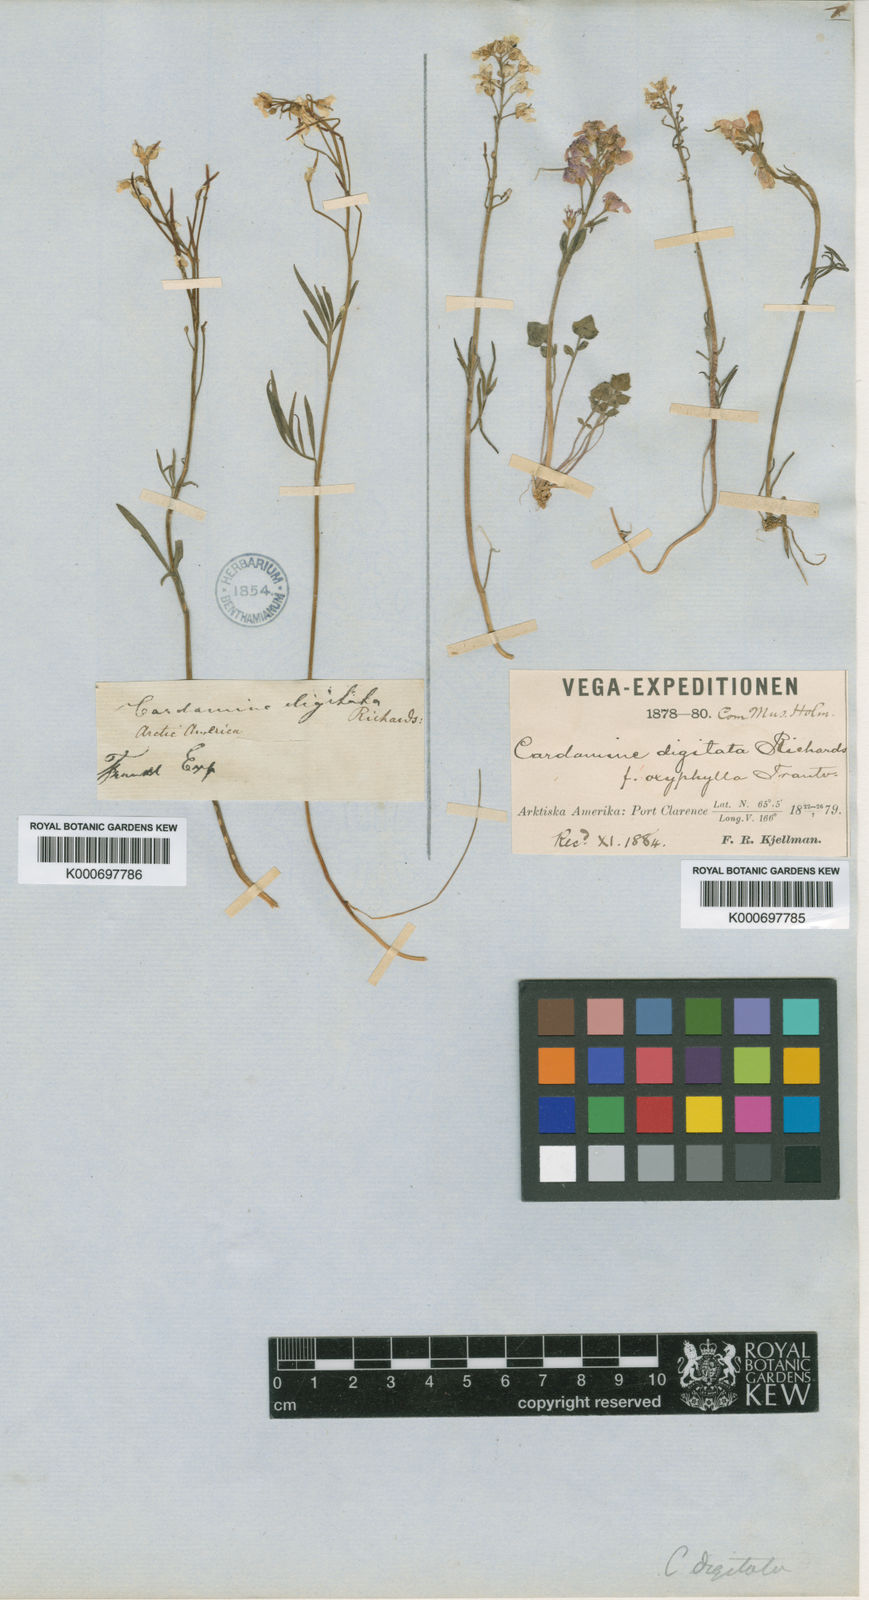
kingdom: Plantae
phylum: Tracheophyta
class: Magnoliopsida
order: Brassicales
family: Brassicaceae
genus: Cardamine
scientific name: Cardamine digitata
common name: Richardson's bittercress
